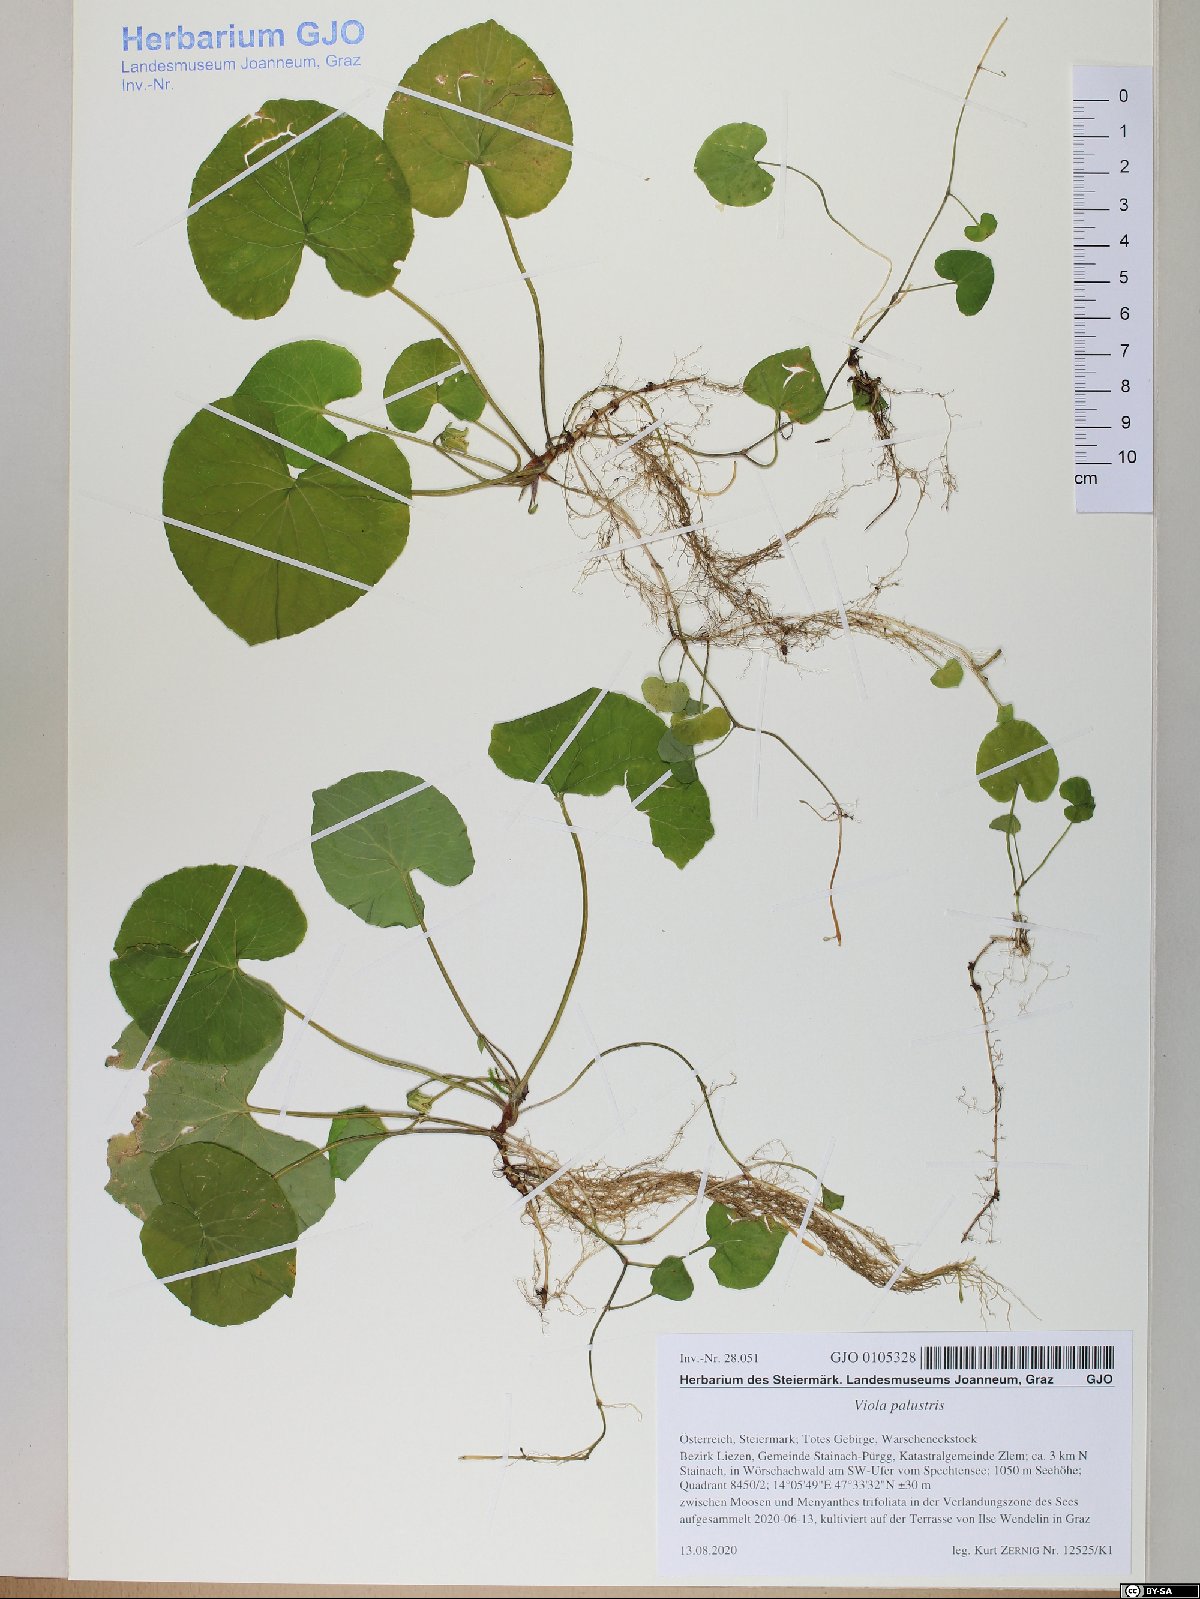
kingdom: Plantae
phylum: Tracheophyta
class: Magnoliopsida
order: Malpighiales
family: Violaceae
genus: Viola
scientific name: Viola palustris
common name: Marsh violet
